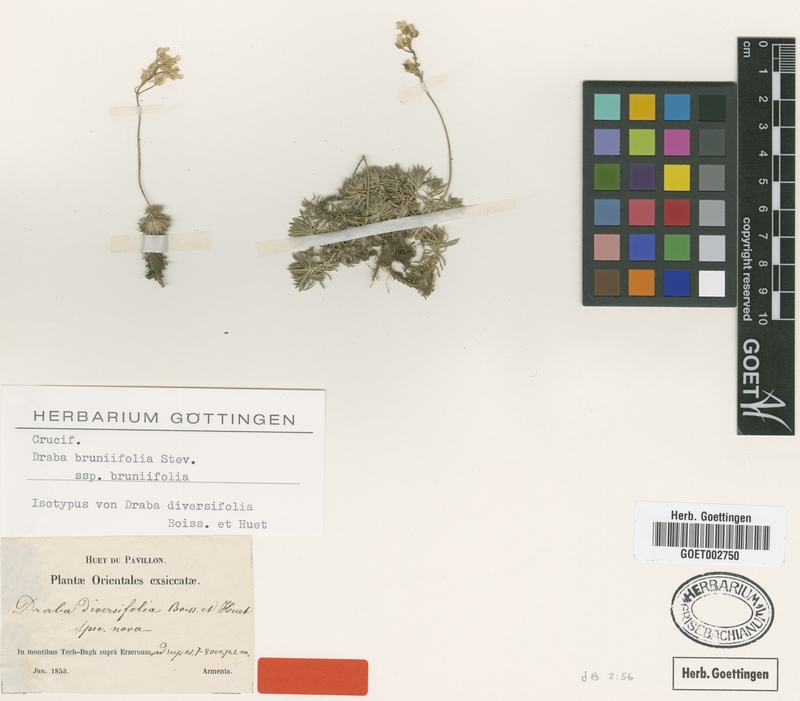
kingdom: Plantae
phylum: Tracheophyta
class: Magnoliopsida
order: Brassicales
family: Brassicaceae
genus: Draba
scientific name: Draba bruniifolia
